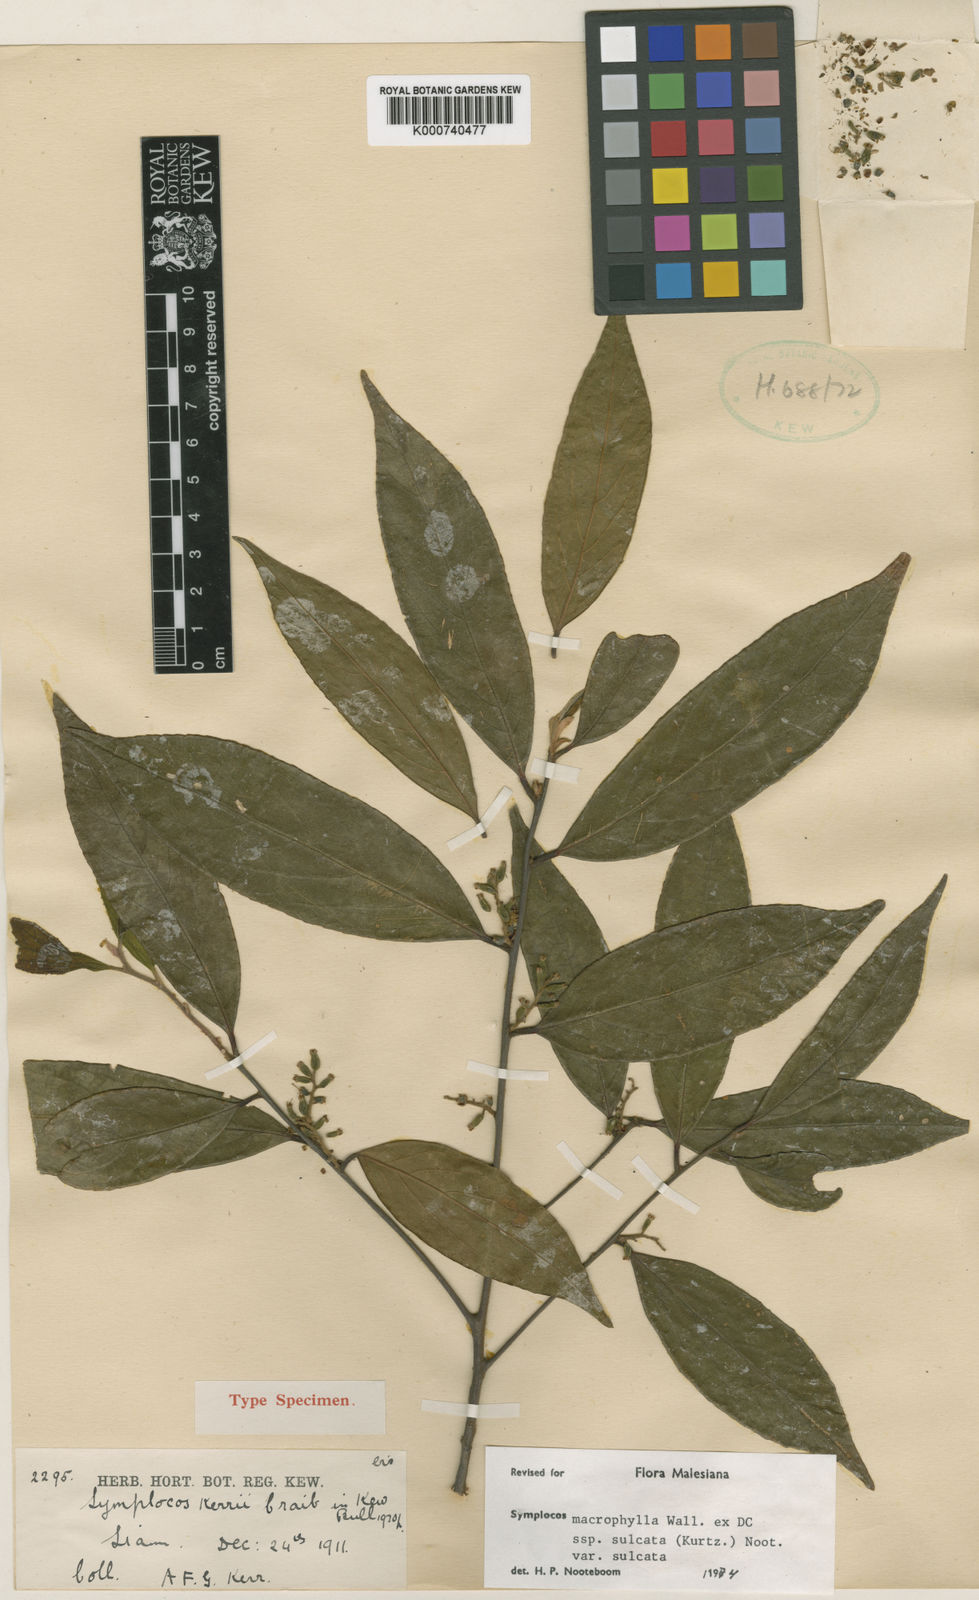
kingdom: Plantae
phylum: Tracheophyta
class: Magnoliopsida
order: Ericales
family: Symplocaceae
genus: Symplocos
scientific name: Symplocos sulcata
